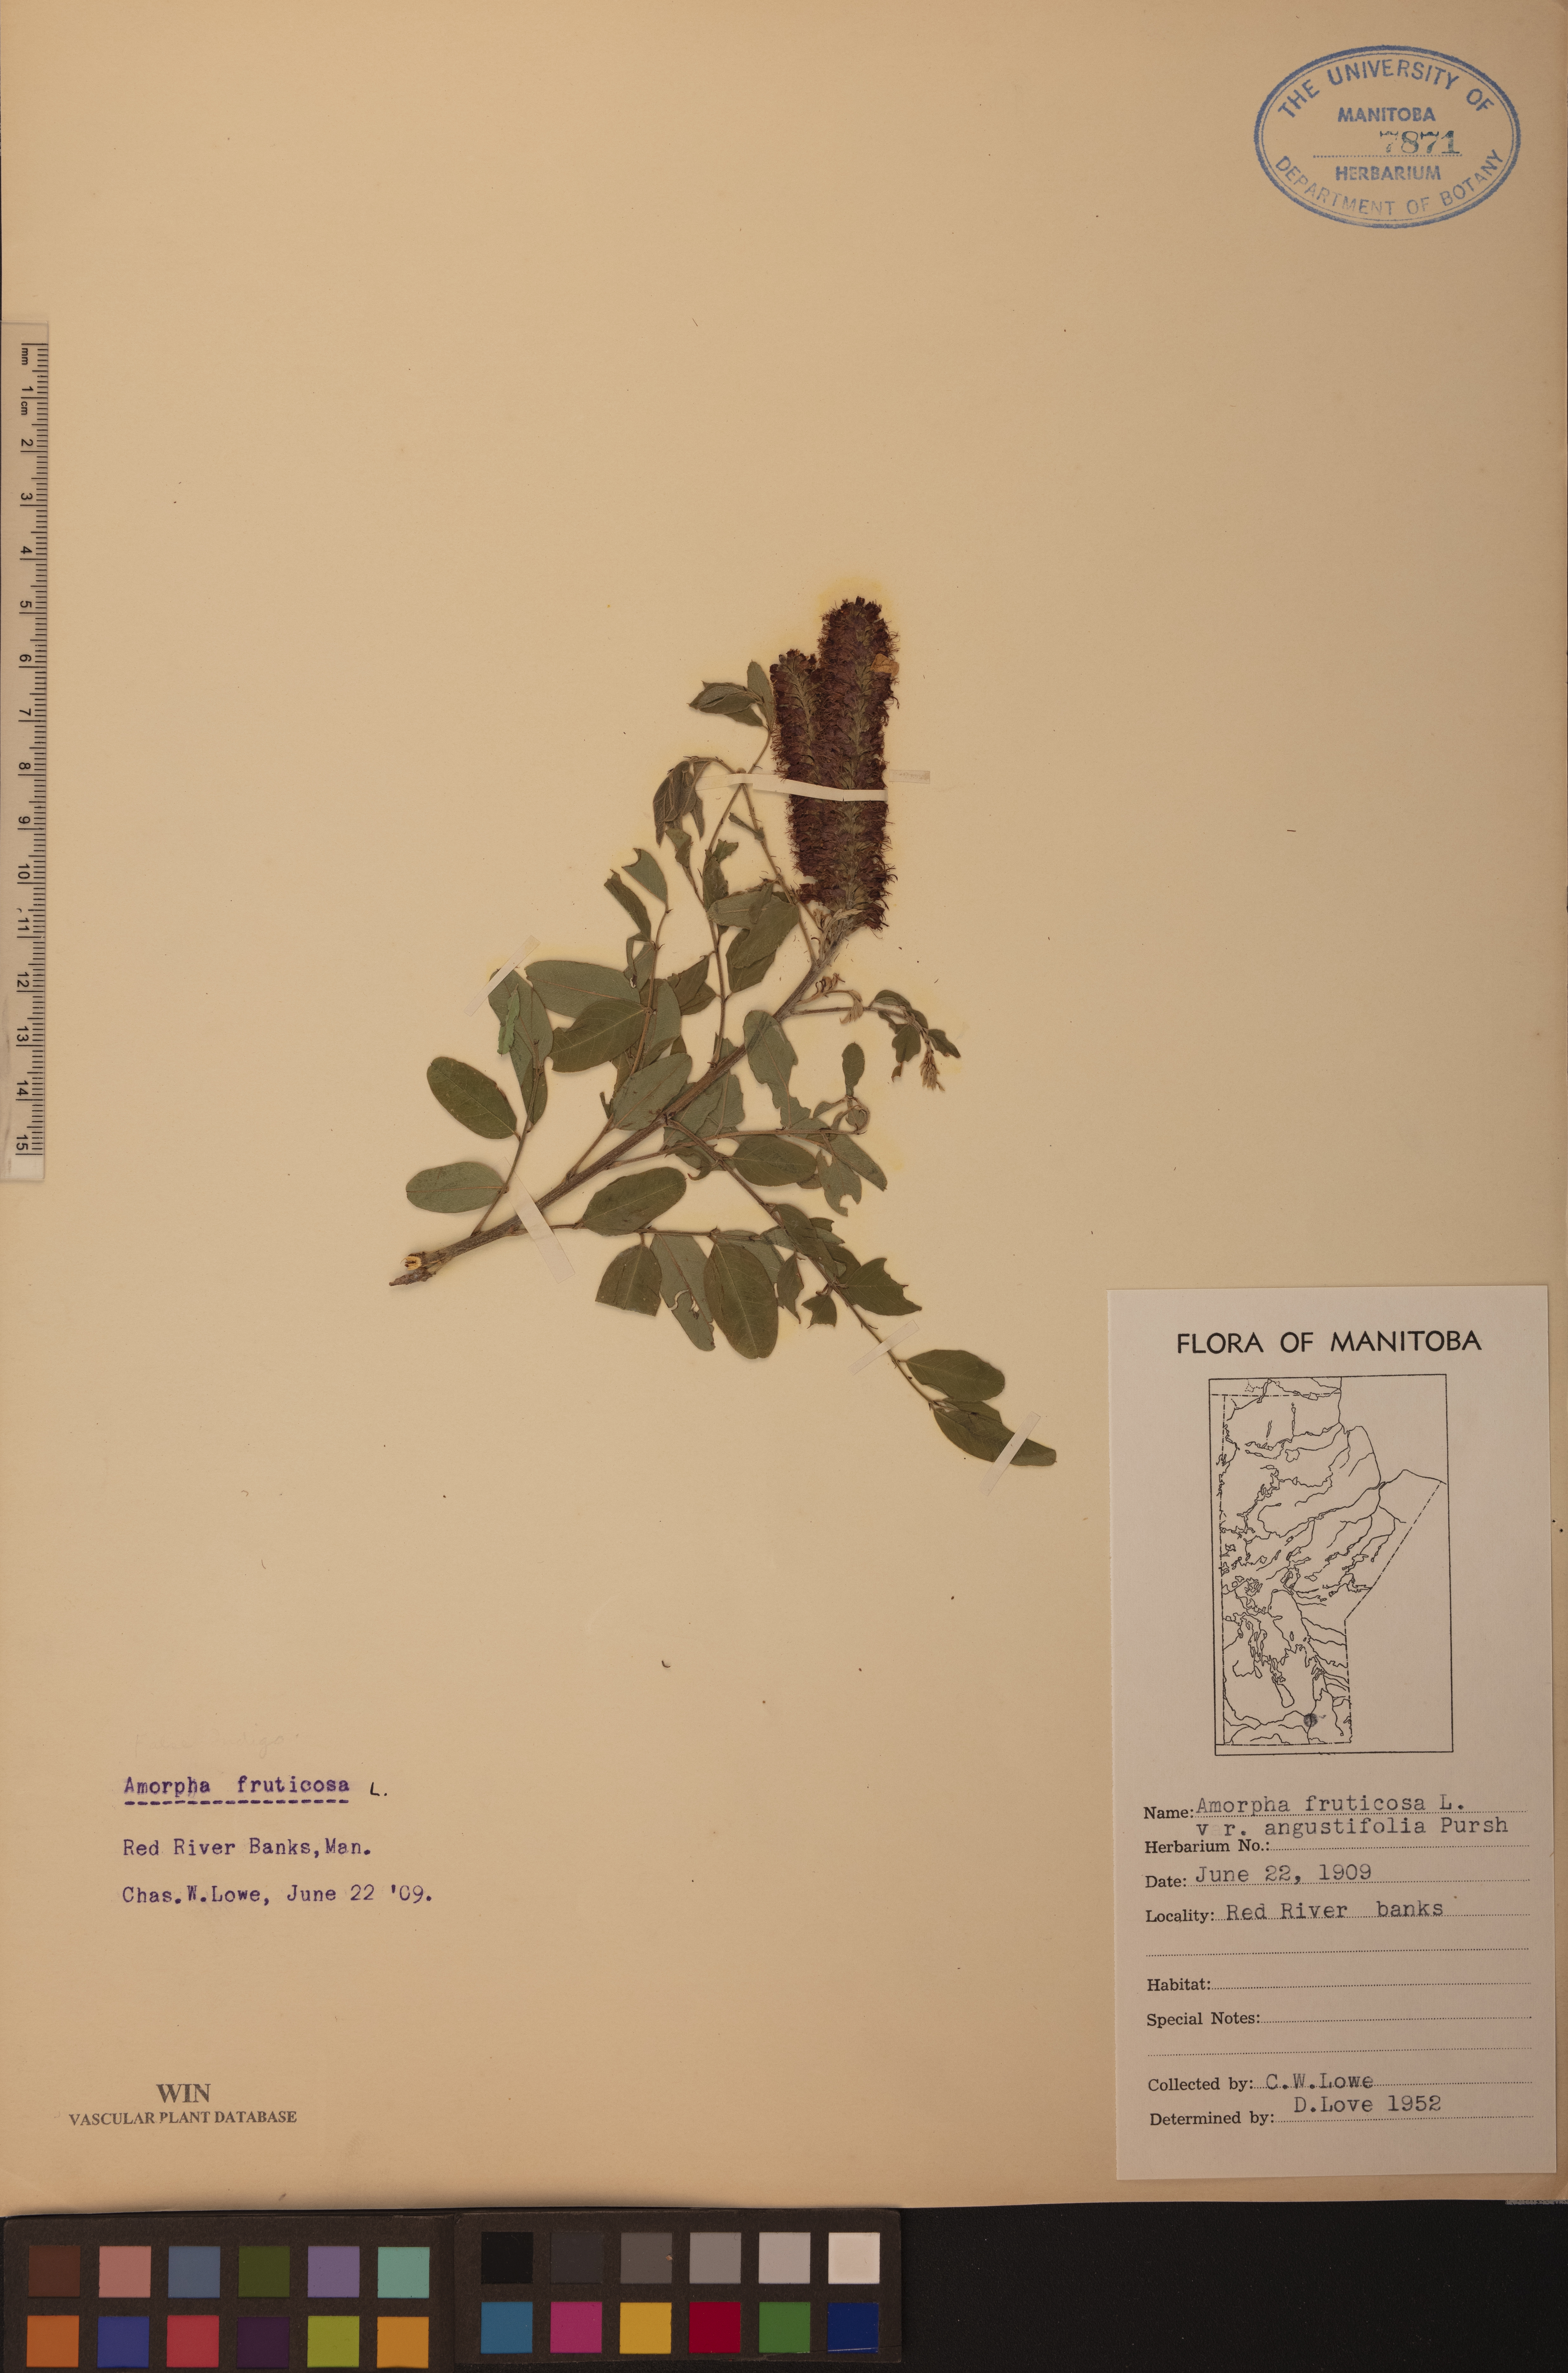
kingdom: Plantae
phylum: Tracheophyta
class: Magnoliopsida
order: Fabales
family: Fabaceae
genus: Amorpha
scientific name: Amorpha fruticosa
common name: False indigo
